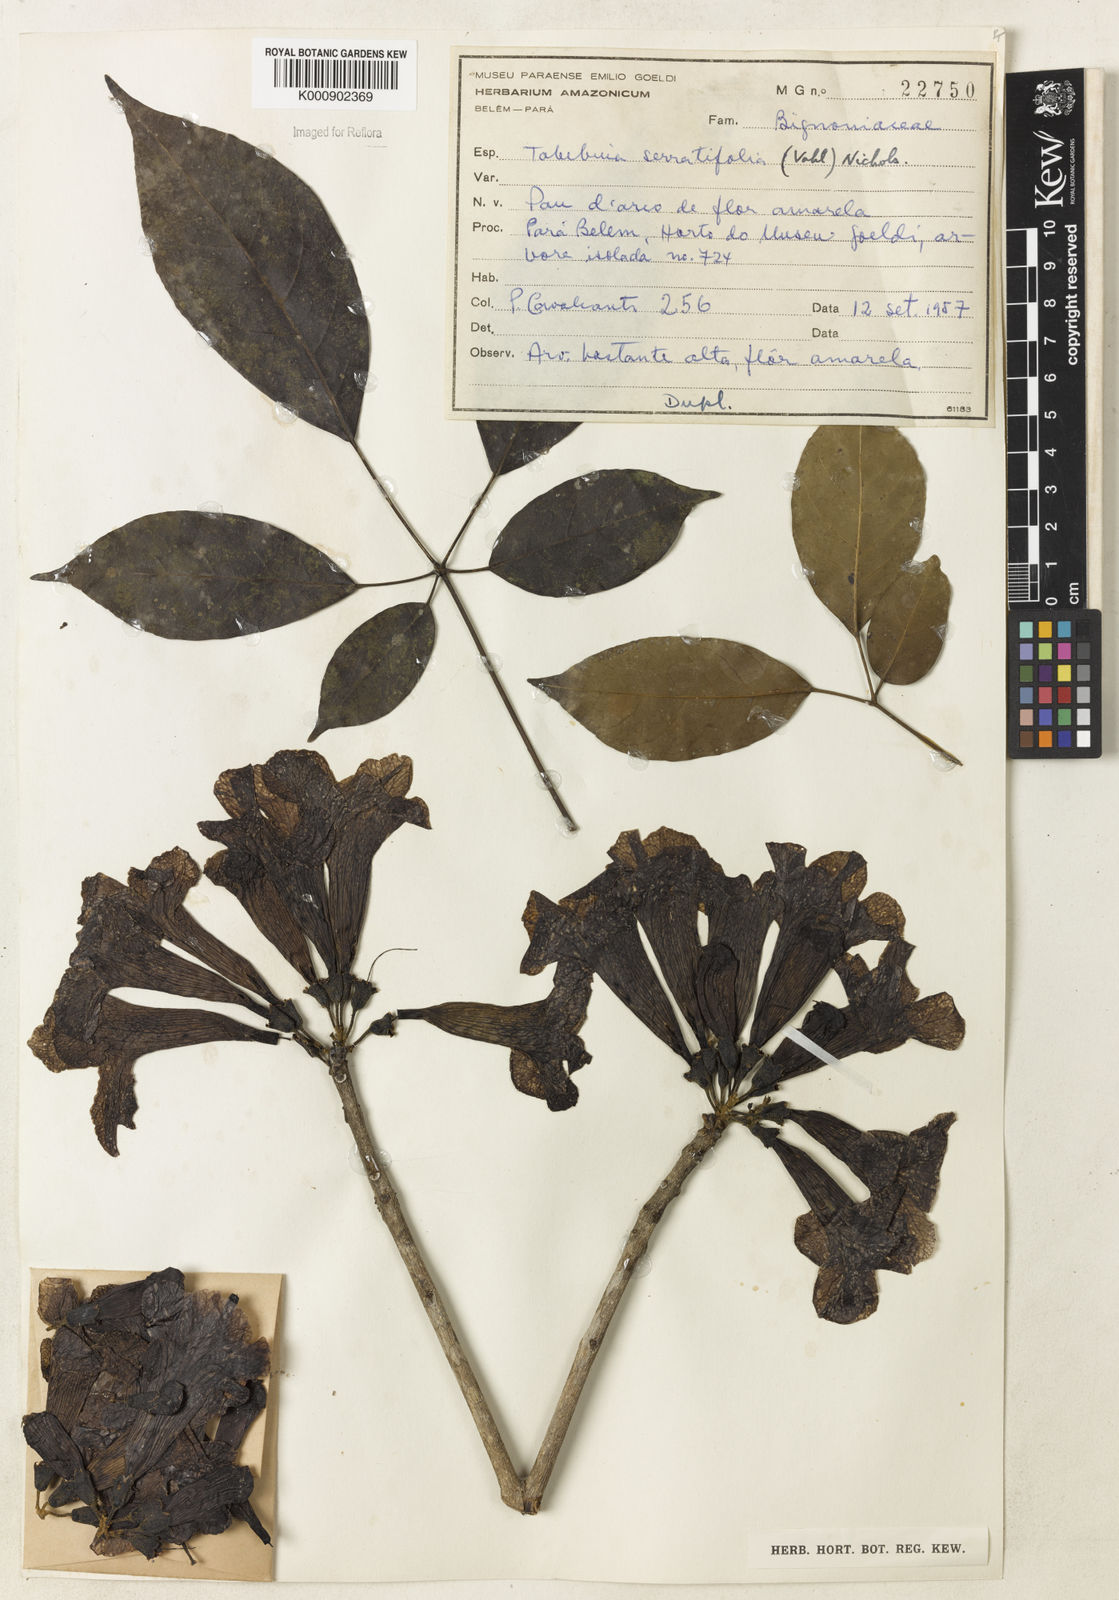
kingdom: Plantae
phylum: Tracheophyta
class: Magnoliopsida
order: Lamiales
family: Bignoniaceae
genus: Handroanthus
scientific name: Handroanthus serratifolius
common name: Yellow ipe
